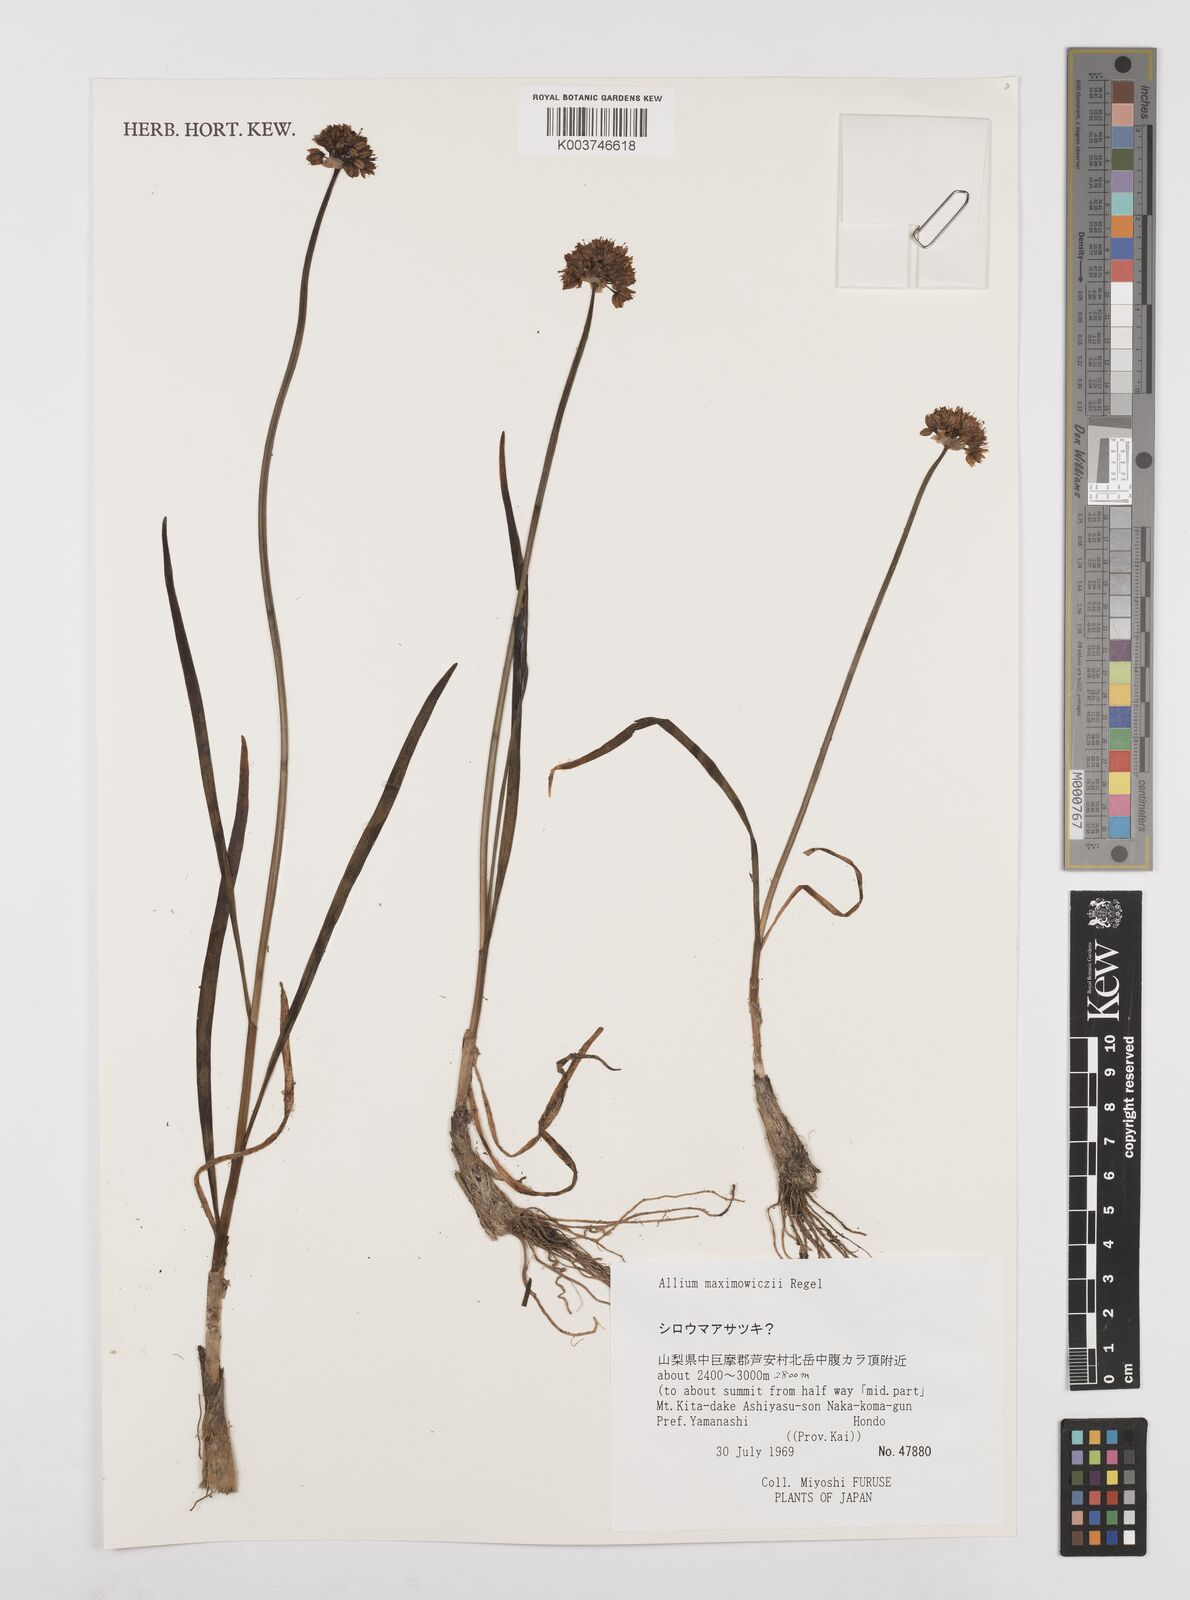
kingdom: Plantae
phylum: Tracheophyta
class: Liliopsida
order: Asparagales
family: Amaryllidaceae
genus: Allium
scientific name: Allium maximowiczii
